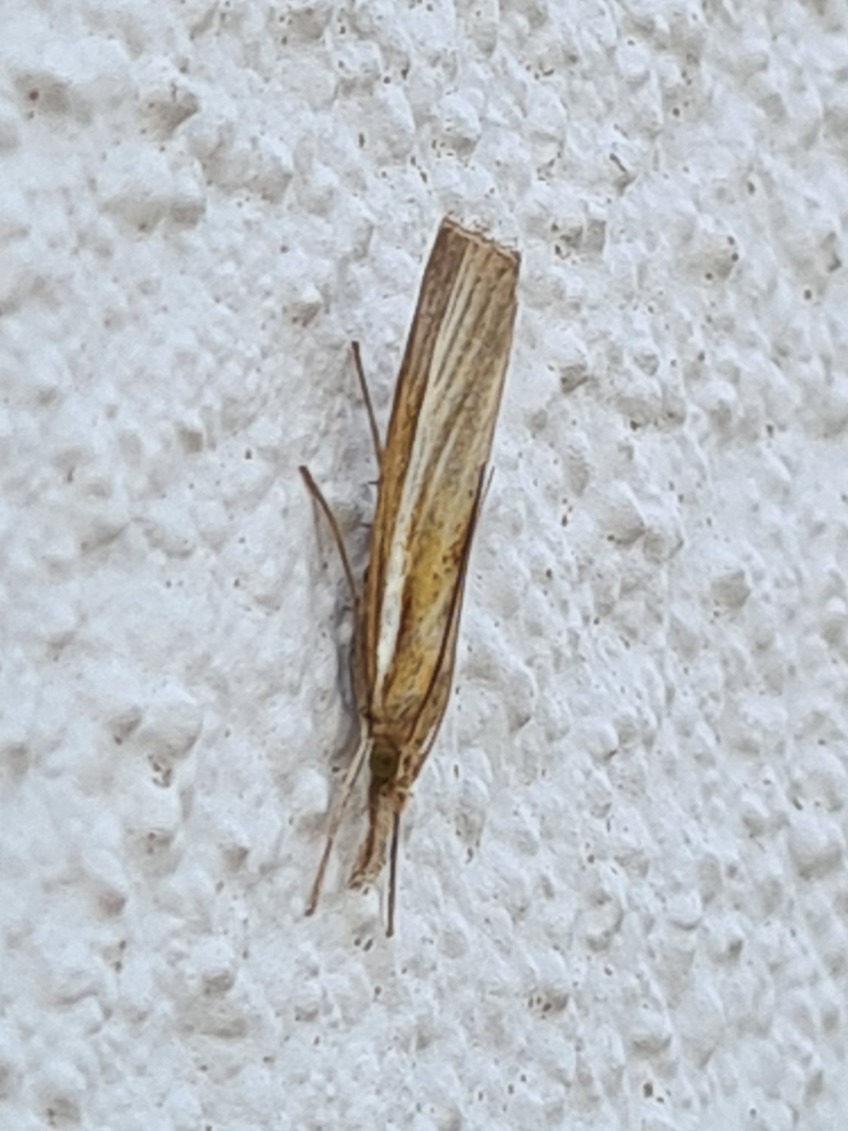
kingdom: Animalia
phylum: Arthropoda
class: Insecta
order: Lepidoptera
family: Crambidae
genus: Agriphila
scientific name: Agriphila tristellus
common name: Okkergult græsmøl
